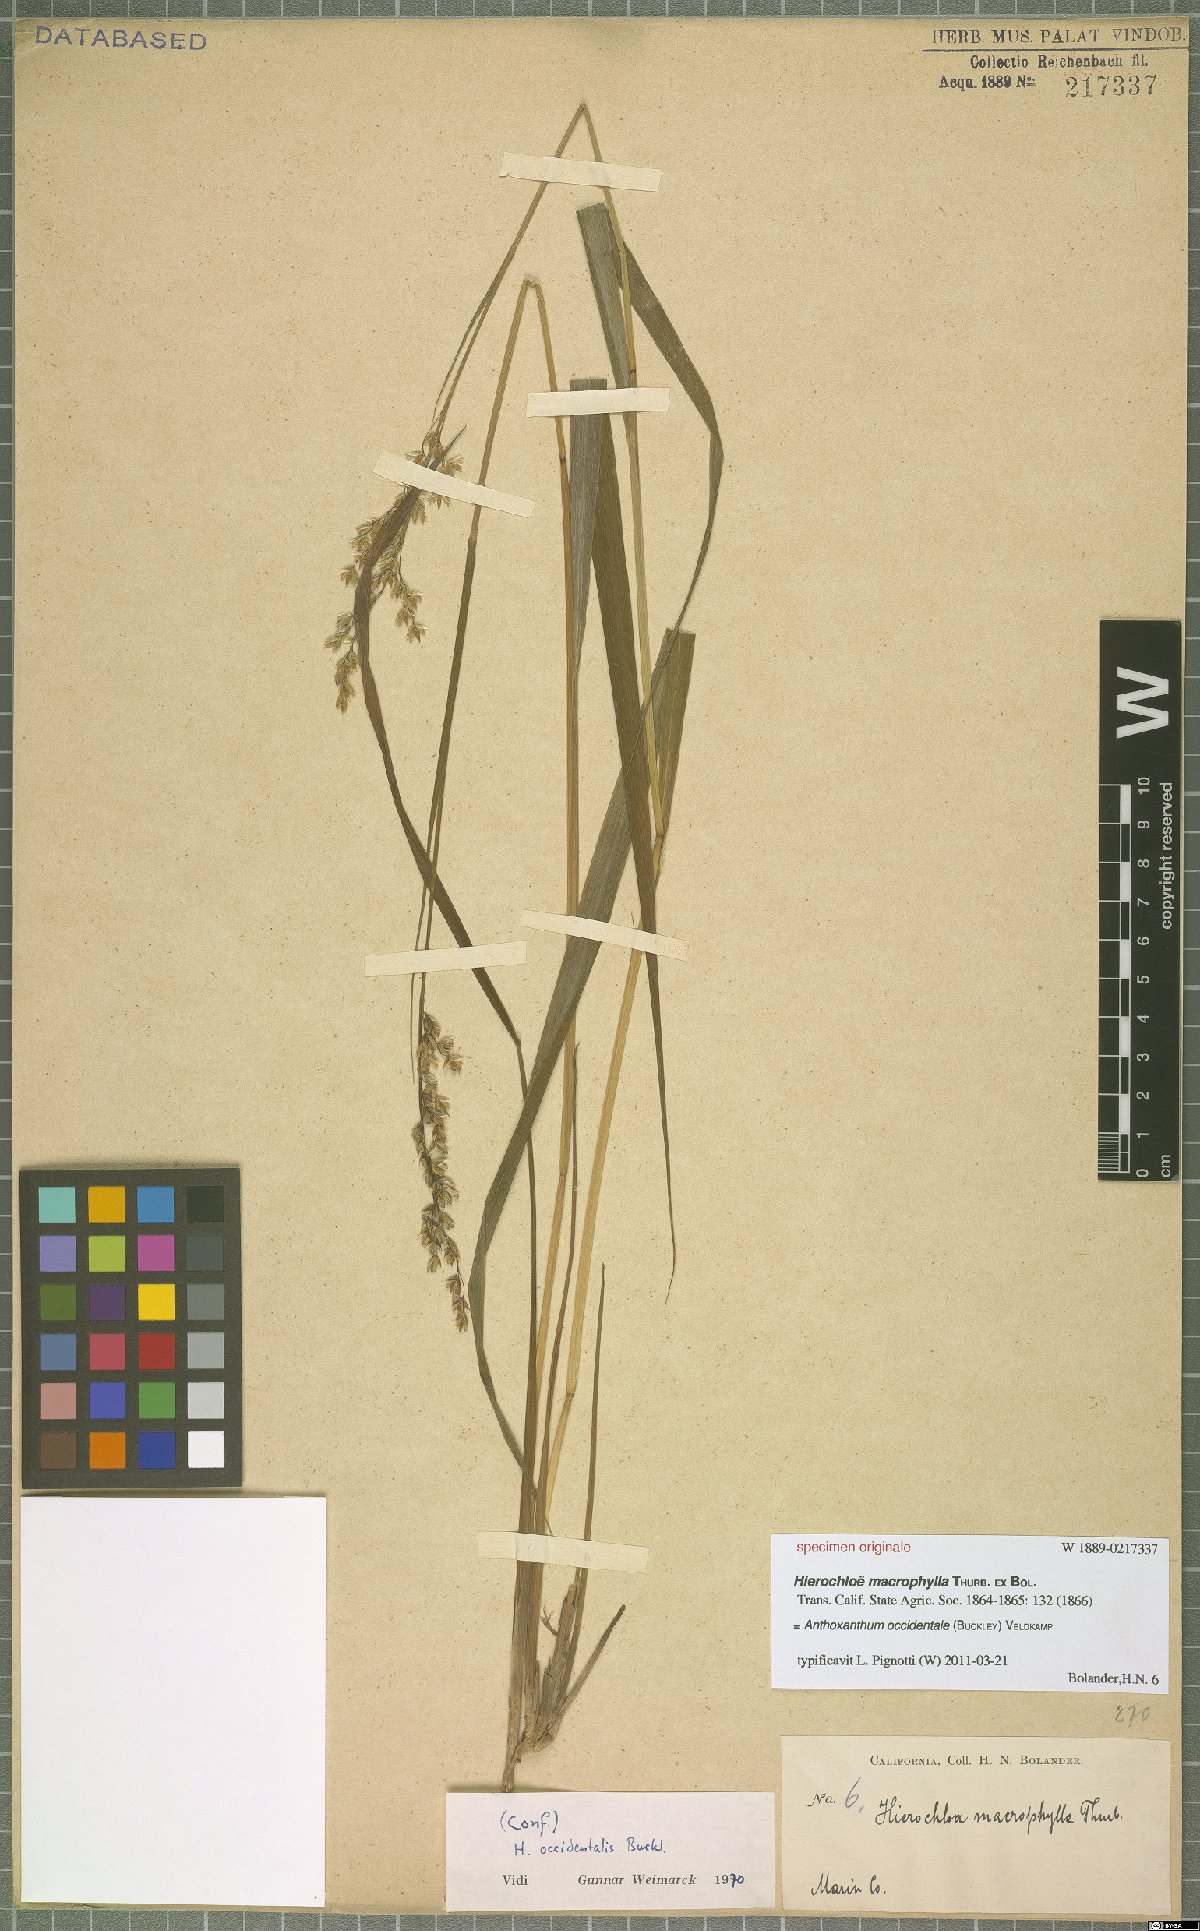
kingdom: Plantae
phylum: Tracheophyta
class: Liliopsida
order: Poales
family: Poaceae
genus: Anthoxanthum
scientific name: Anthoxanthum occidentale
